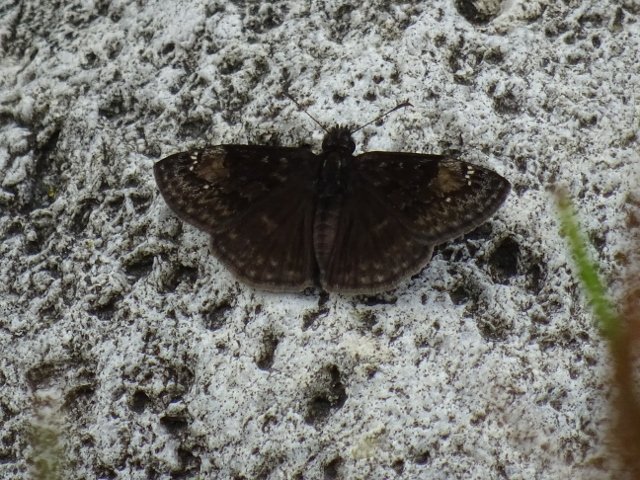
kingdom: Animalia
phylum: Arthropoda
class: Insecta
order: Lepidoptera
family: Hesperiidae
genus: Gesta
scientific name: Gesta
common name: Wild Indigo Duskywing
